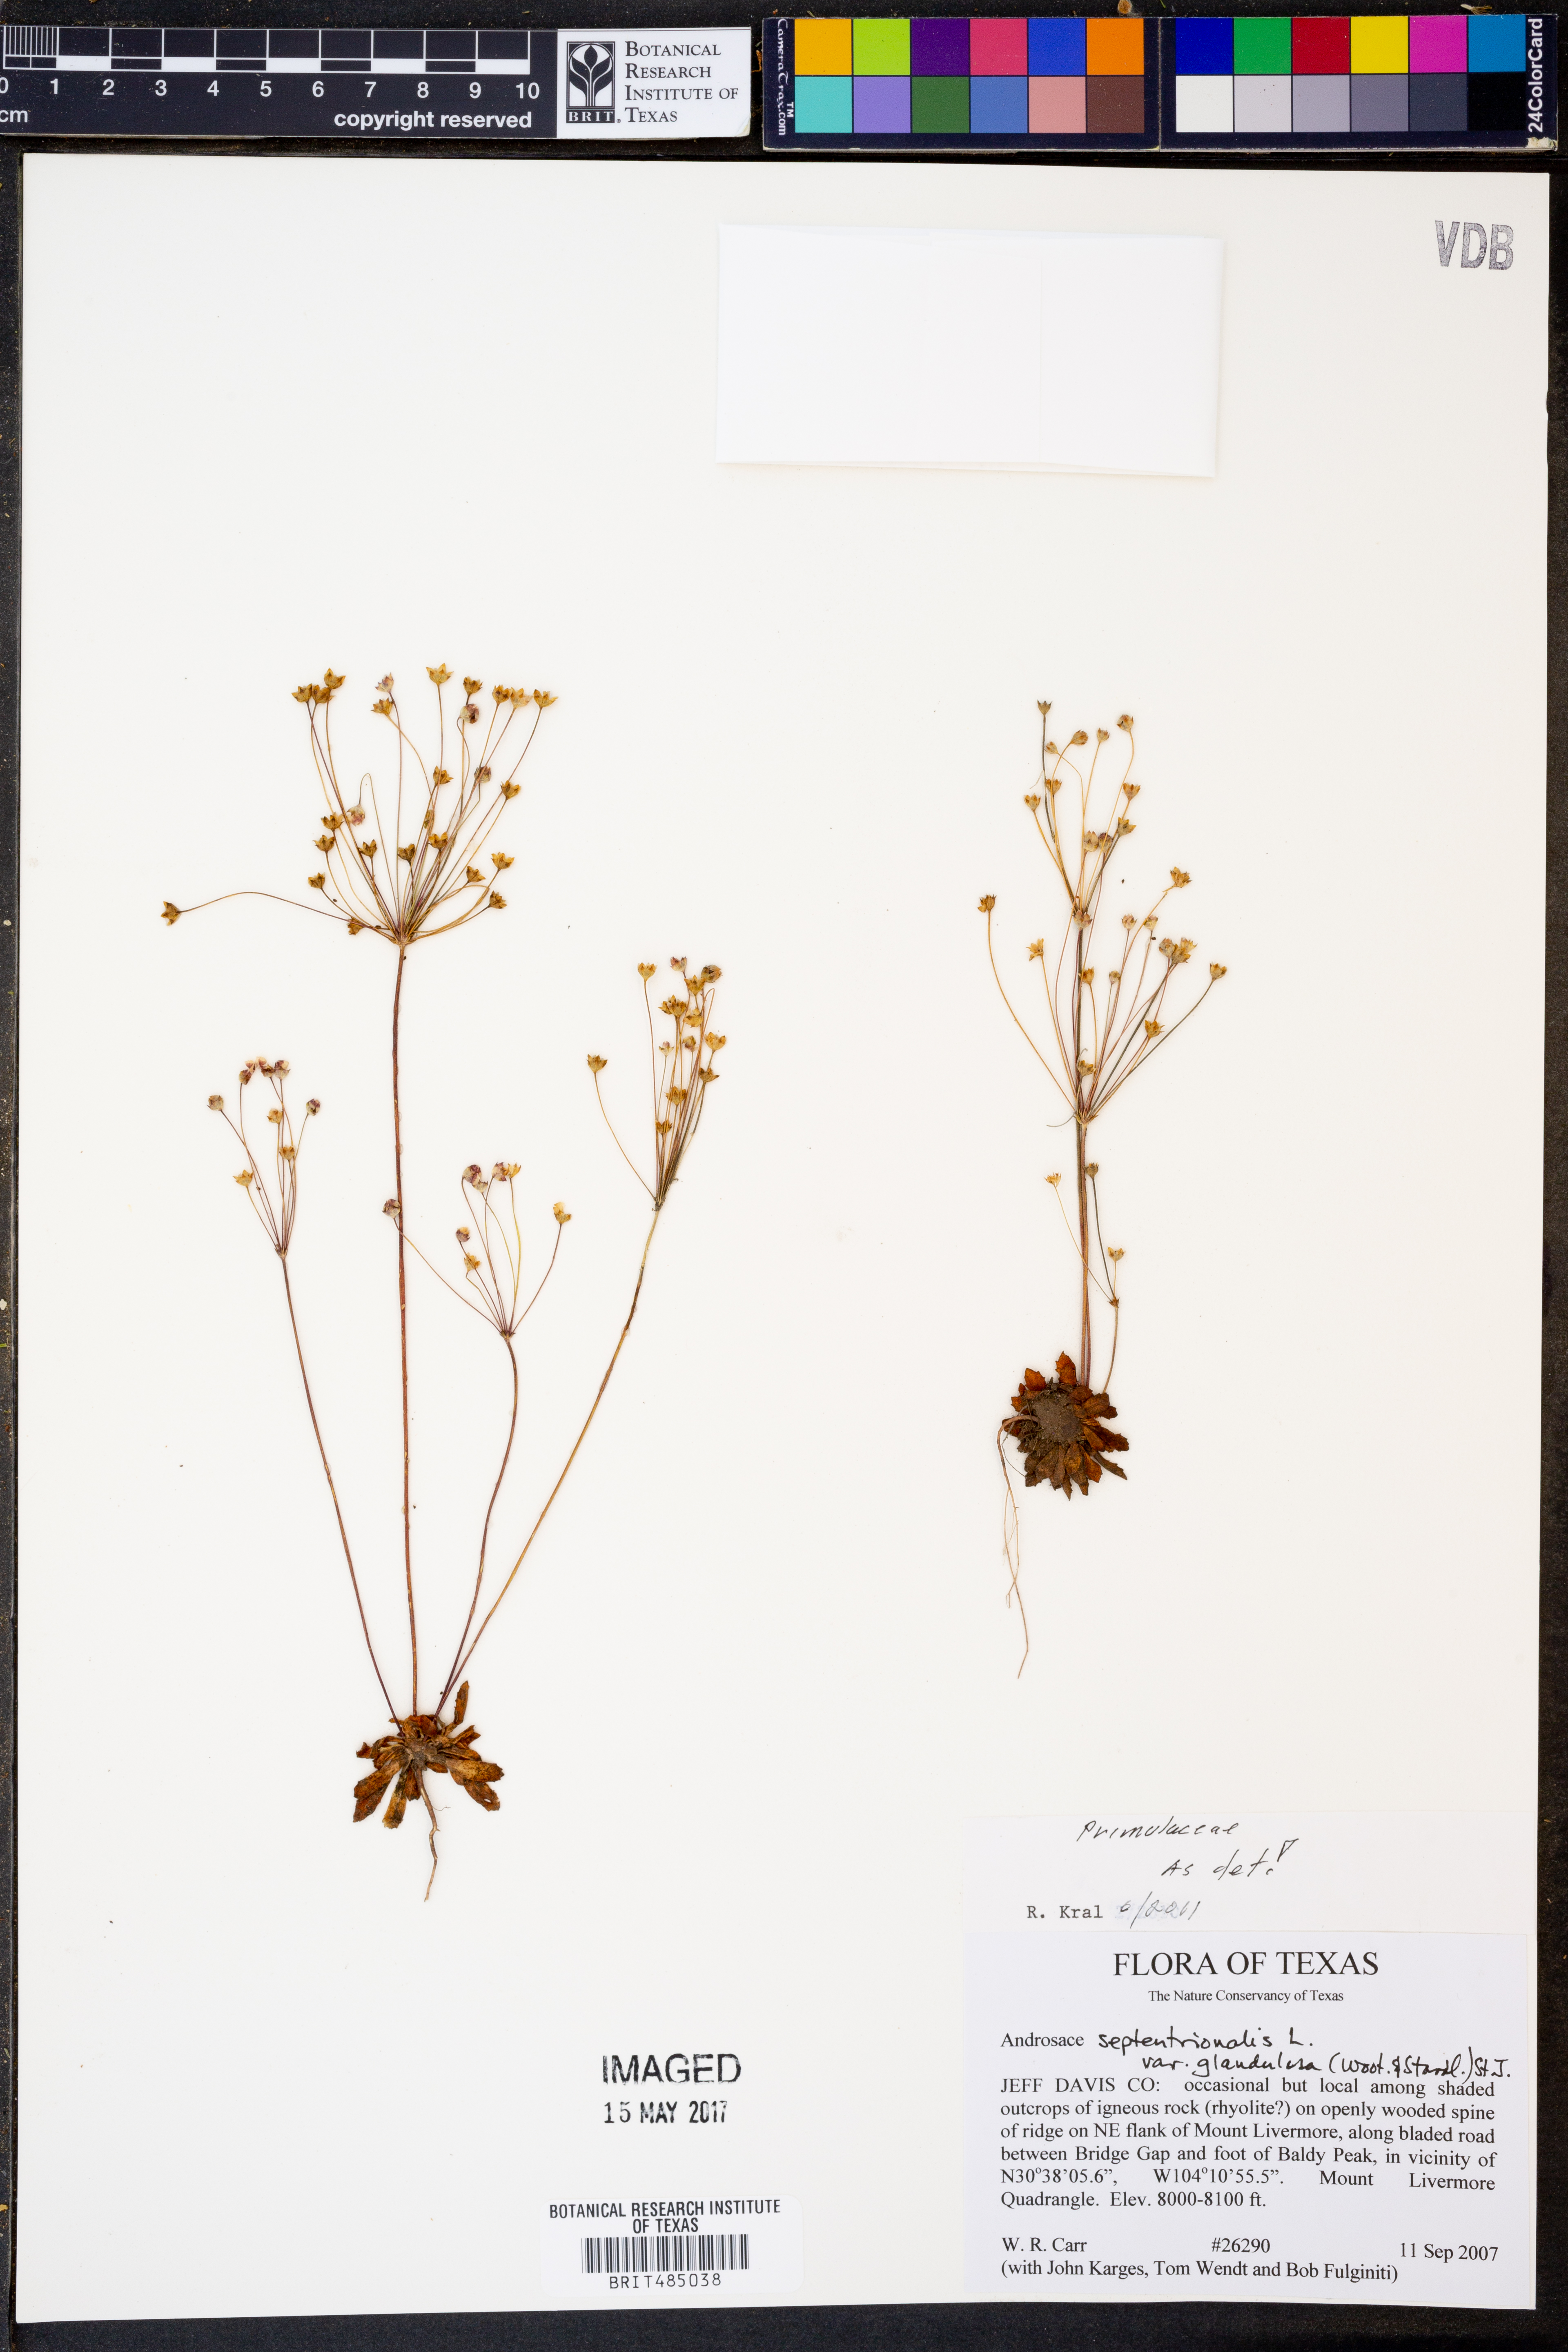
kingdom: Plantae
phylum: Tracheophyta
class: Magnoliopsida
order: Ericales
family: Primulaceae
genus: Androsace
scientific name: Androsace septentrionalis
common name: Hairy northern fairy-candelabra
